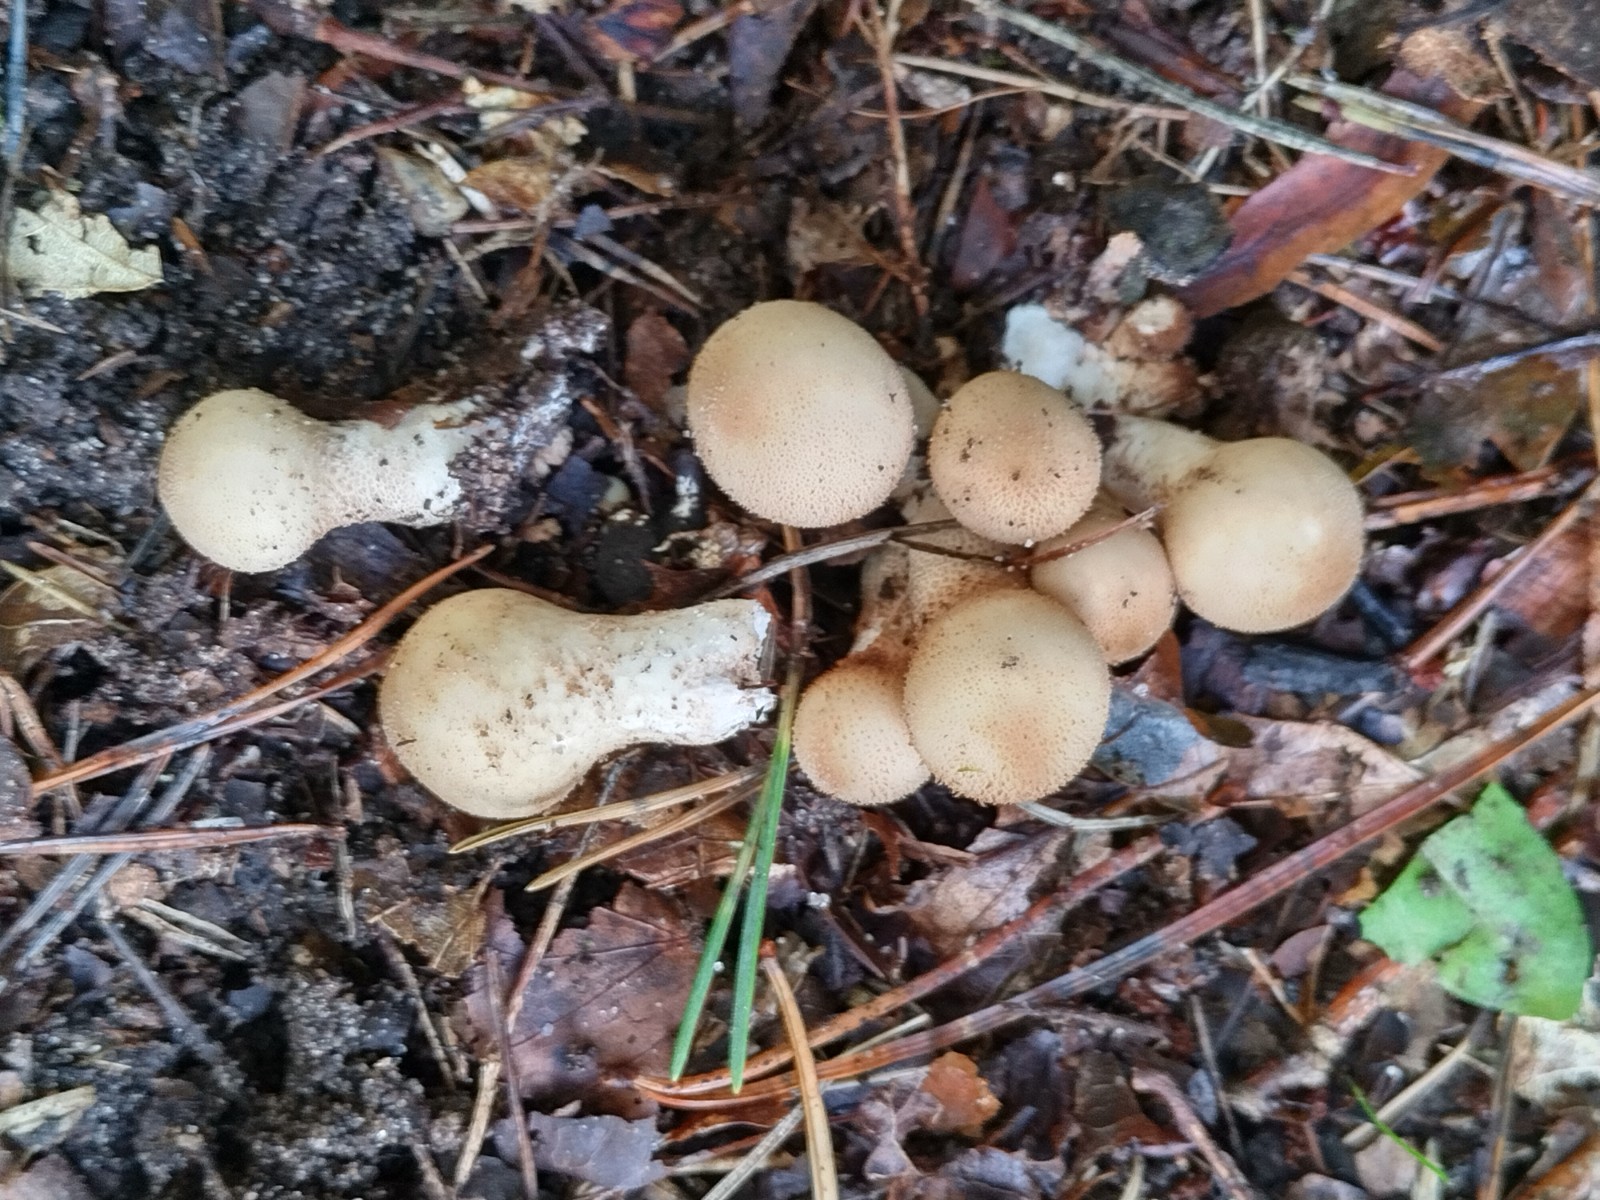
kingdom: Fungi
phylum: Basidiomycota
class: Agaricomycetes
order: Agaricales
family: Lycoperdaceae
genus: Apioperdon
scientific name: Apioperdon pyriforme
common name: pære-støvbold
